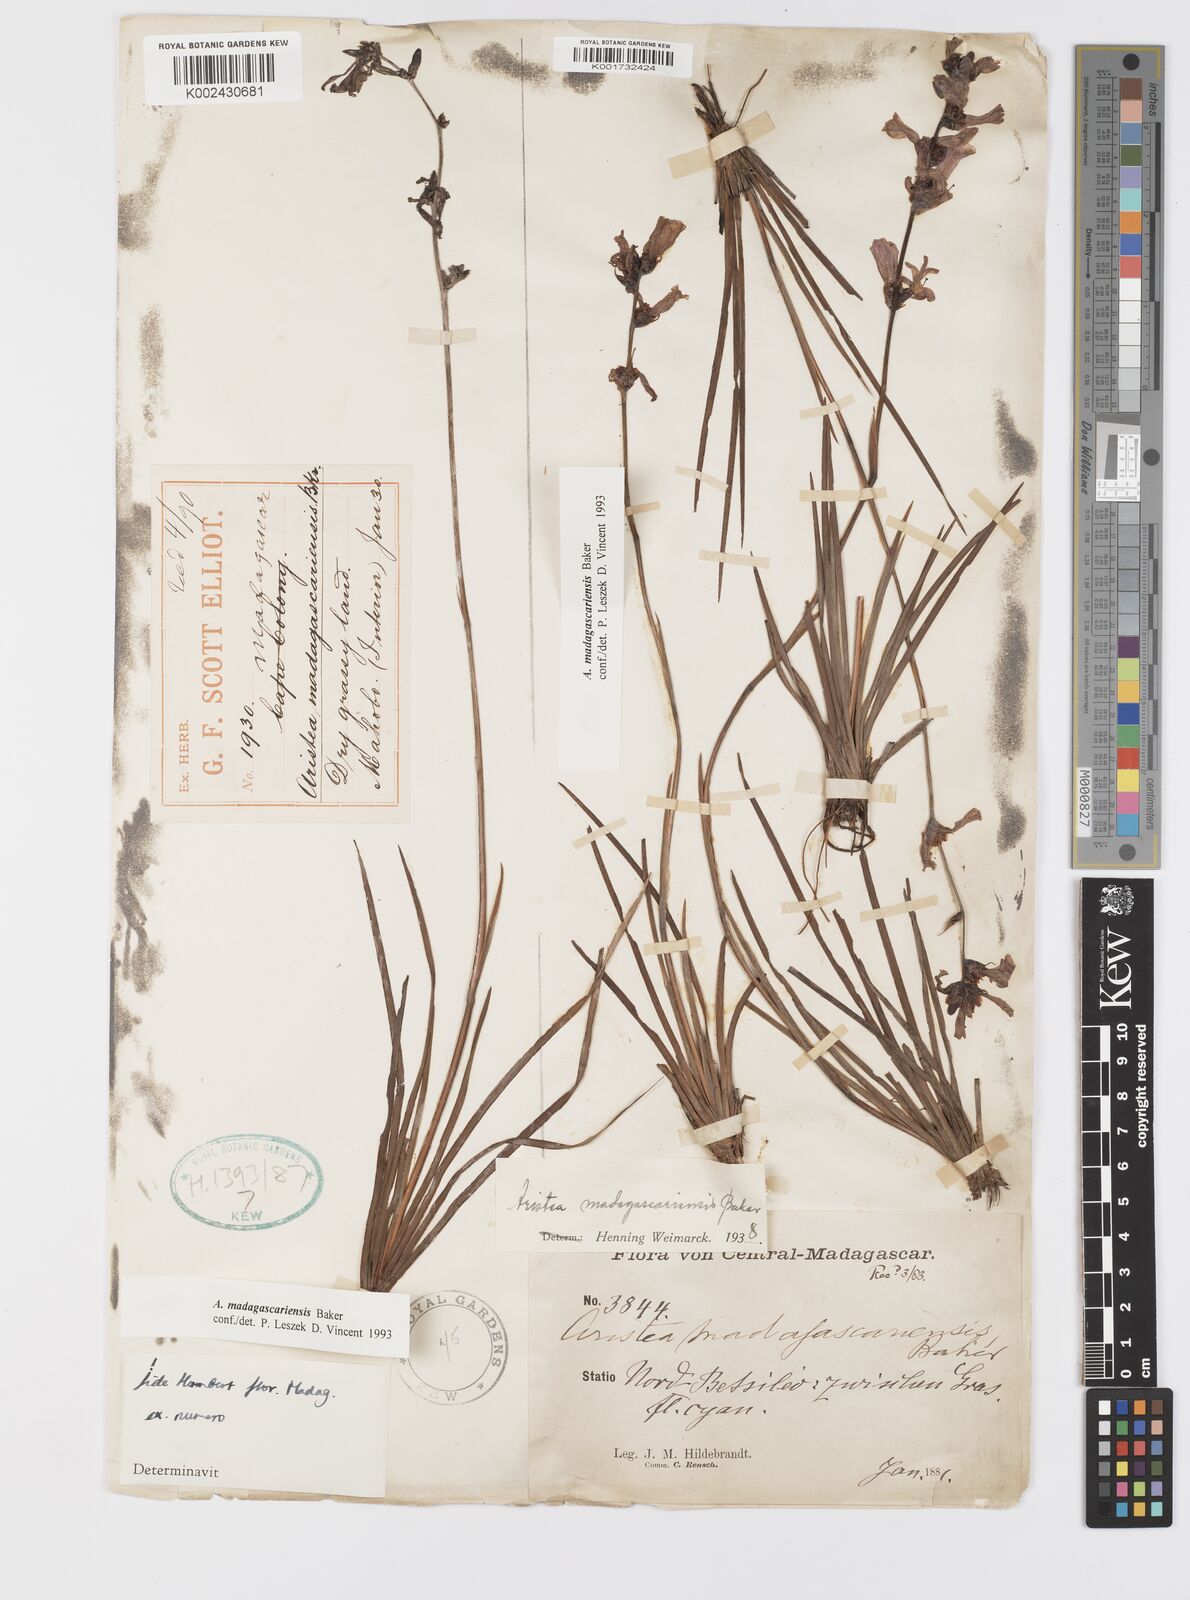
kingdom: Plantae
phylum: Tracheophyta
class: Liliopsida
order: Asparagales
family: Iridaceae
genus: Aristea
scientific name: Aristea madagascariensis
